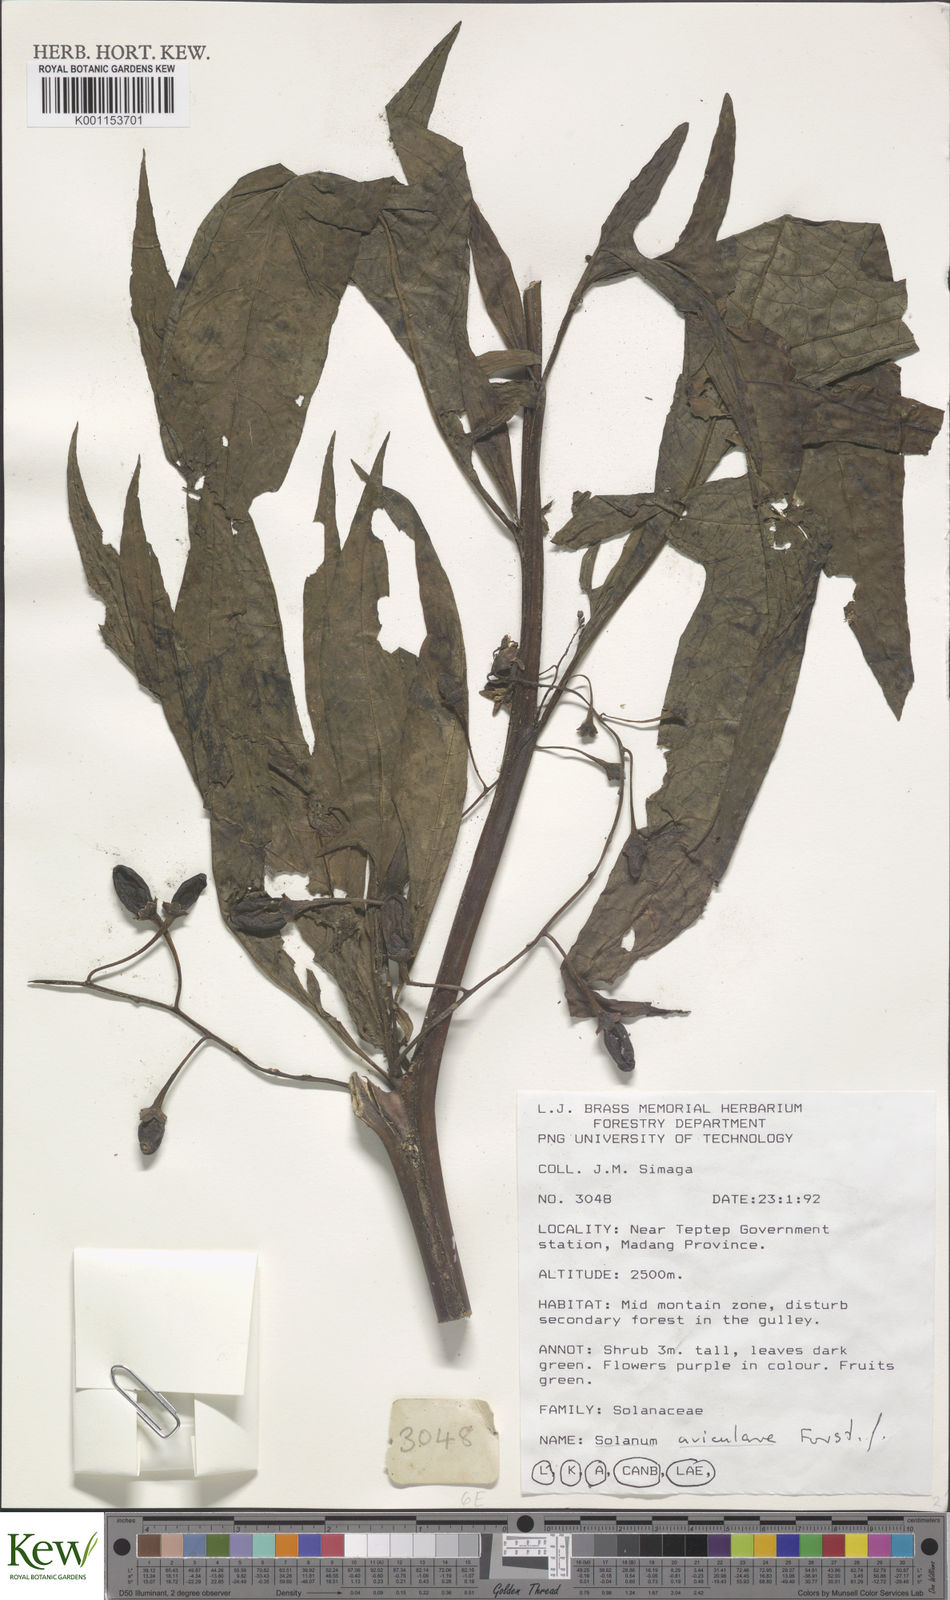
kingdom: Plantae
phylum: Tracheophyta
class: Magnoliopsida
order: Solanales
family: Solanaceae
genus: Solanum
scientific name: Solanum aviculare
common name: New zealand nightshade
